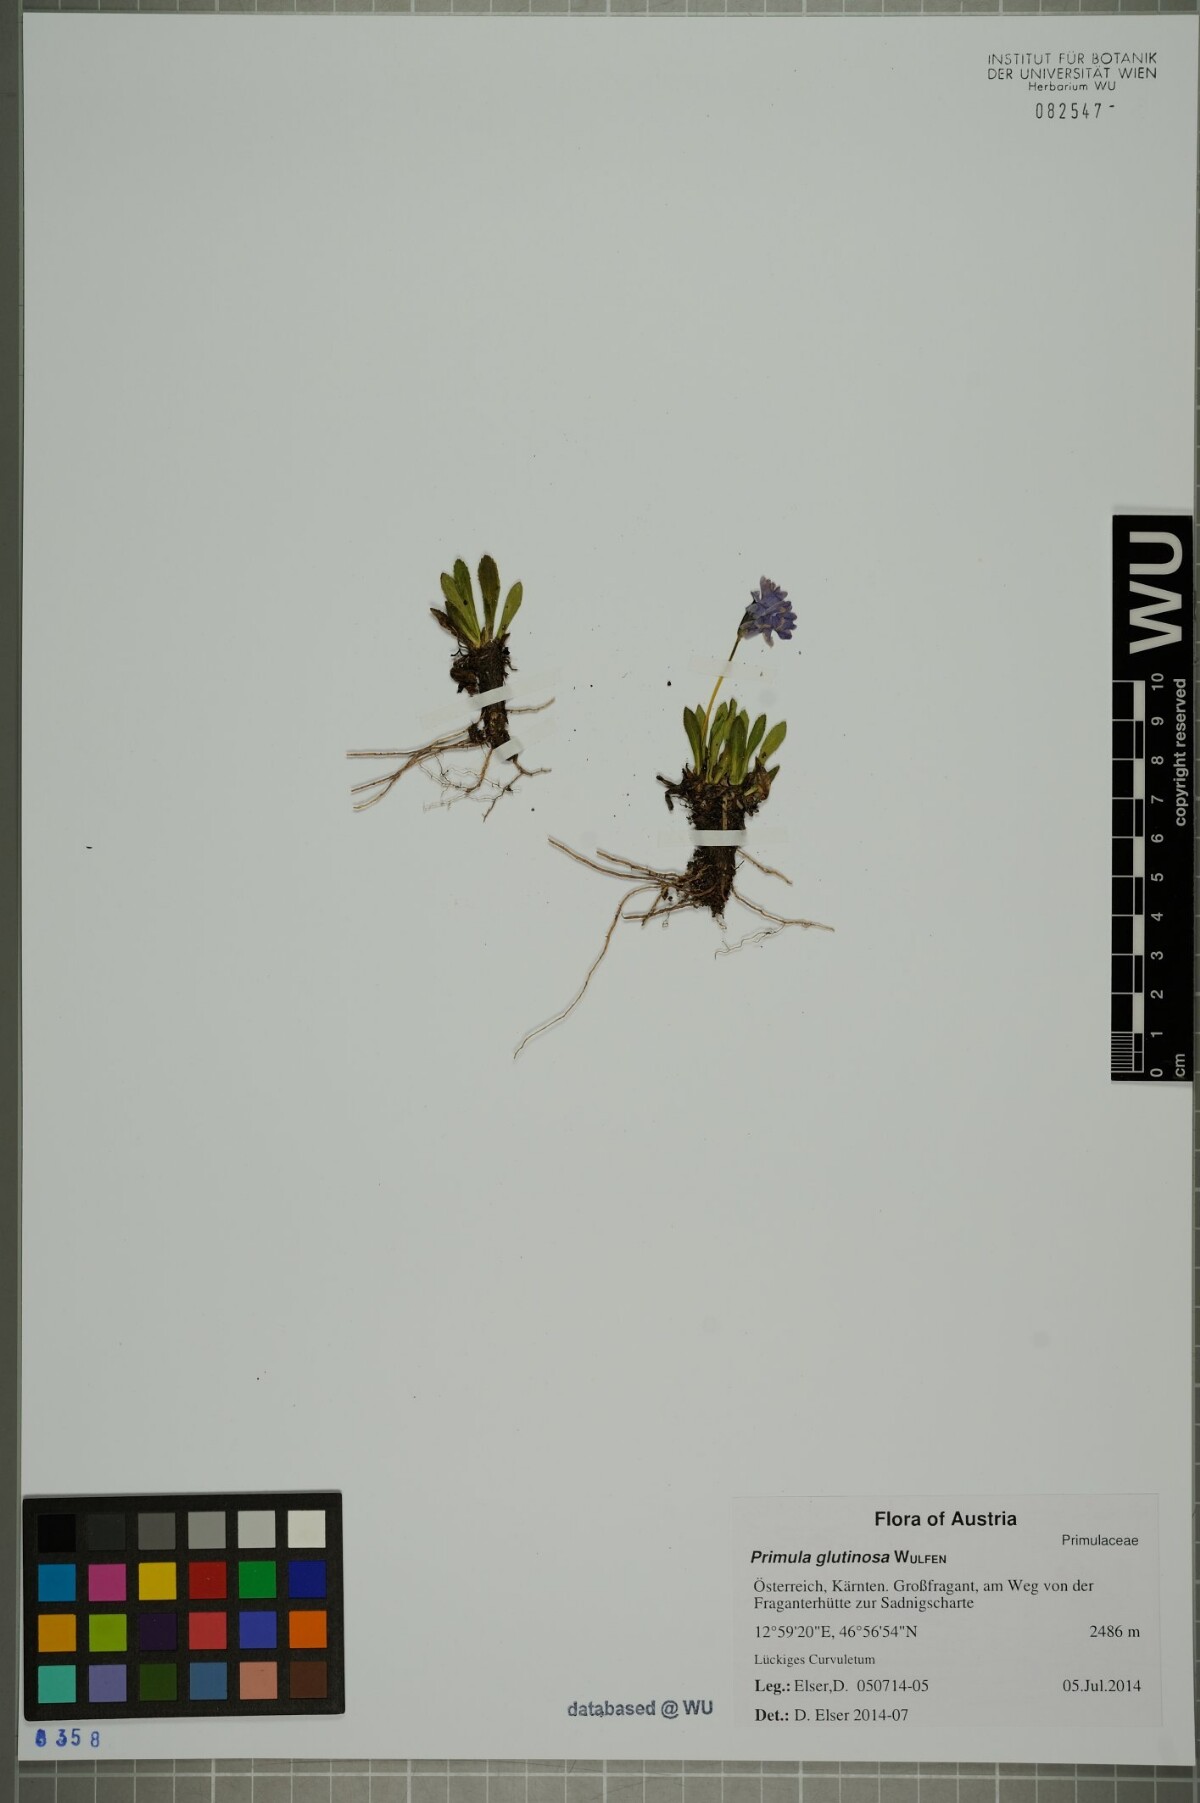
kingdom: Plantae
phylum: Tracheophyta
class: Magnoliopsida
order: Ericales
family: Primulaceae
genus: Primula
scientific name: Primula glutinosa
